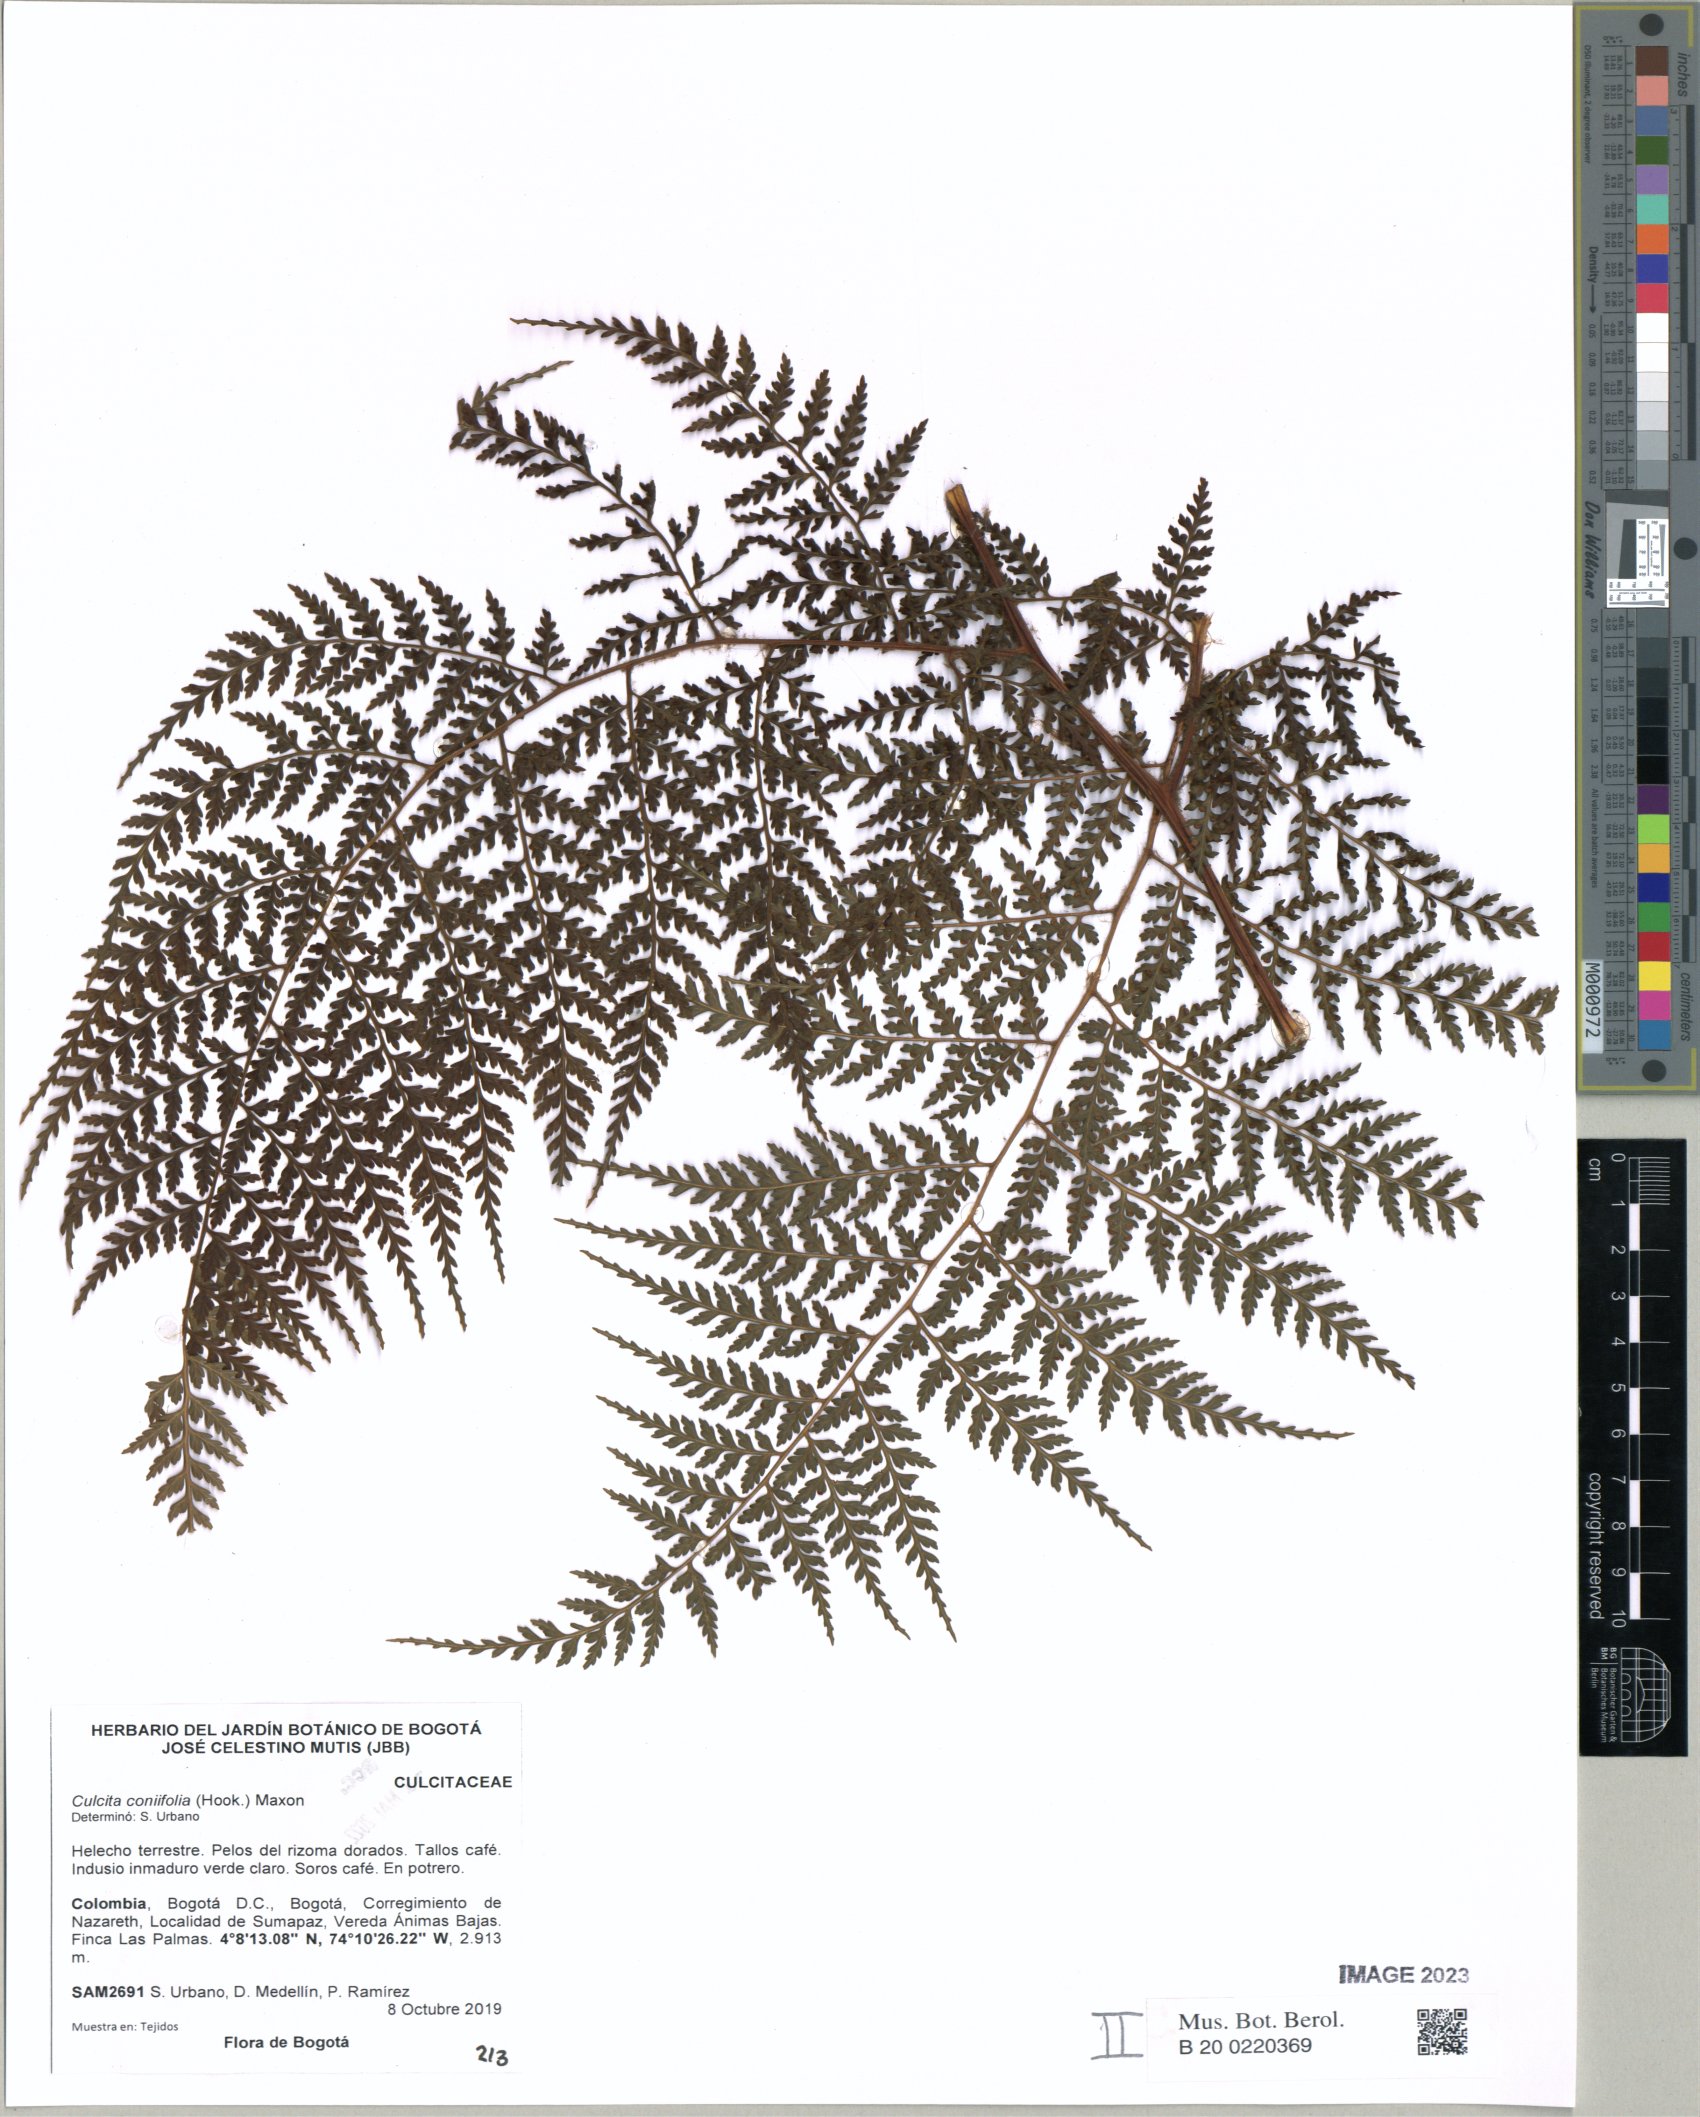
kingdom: Plantae
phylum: Tracheophyta
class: Polypodiopsida
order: Cyatheales
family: Culcitaceae
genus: Culcita
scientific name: Culcita coniifolia
